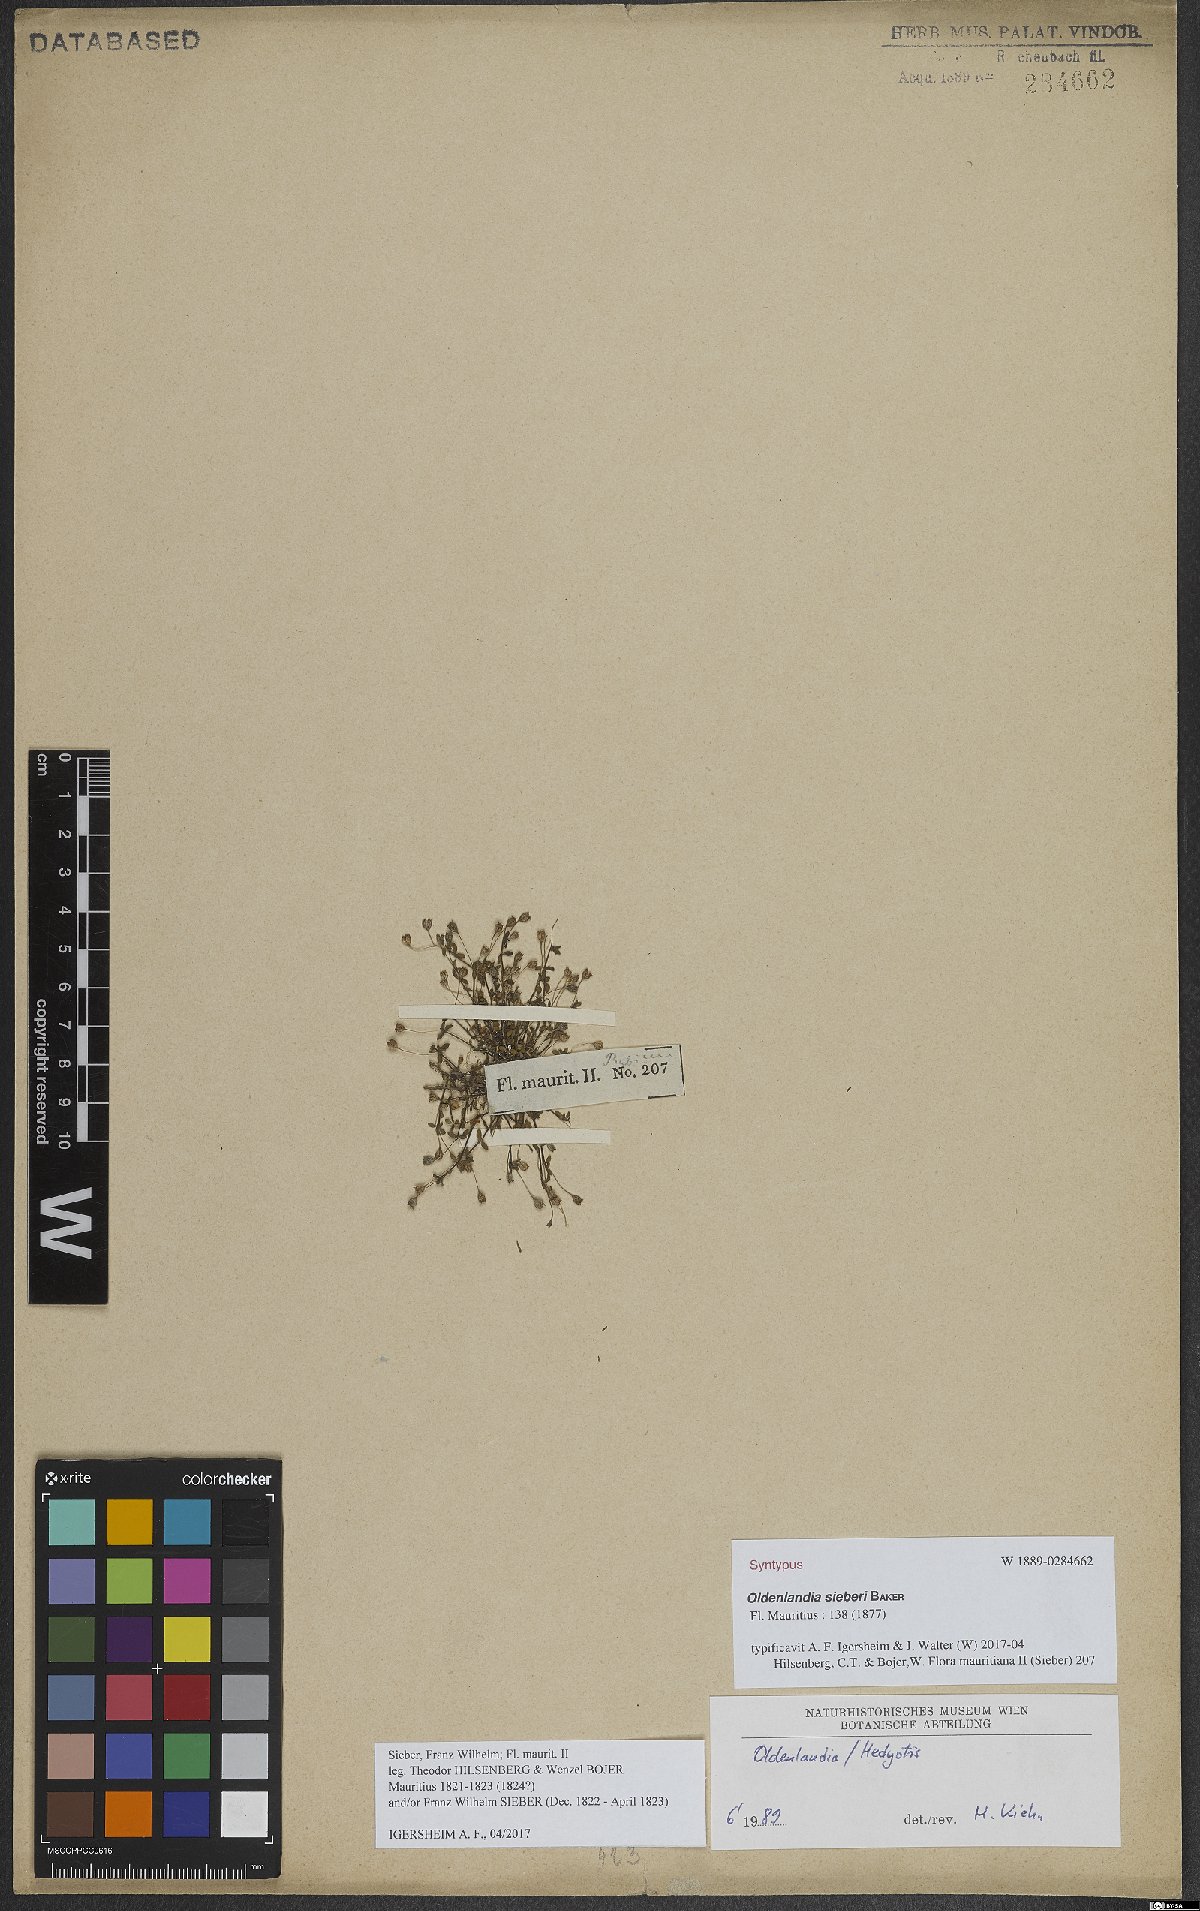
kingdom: Plantae
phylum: Tracheophyta
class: Magnoliopsida
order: Gentianales
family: Rubiaceae
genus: Oldenlandia
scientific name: Oldenlandia sieberi
